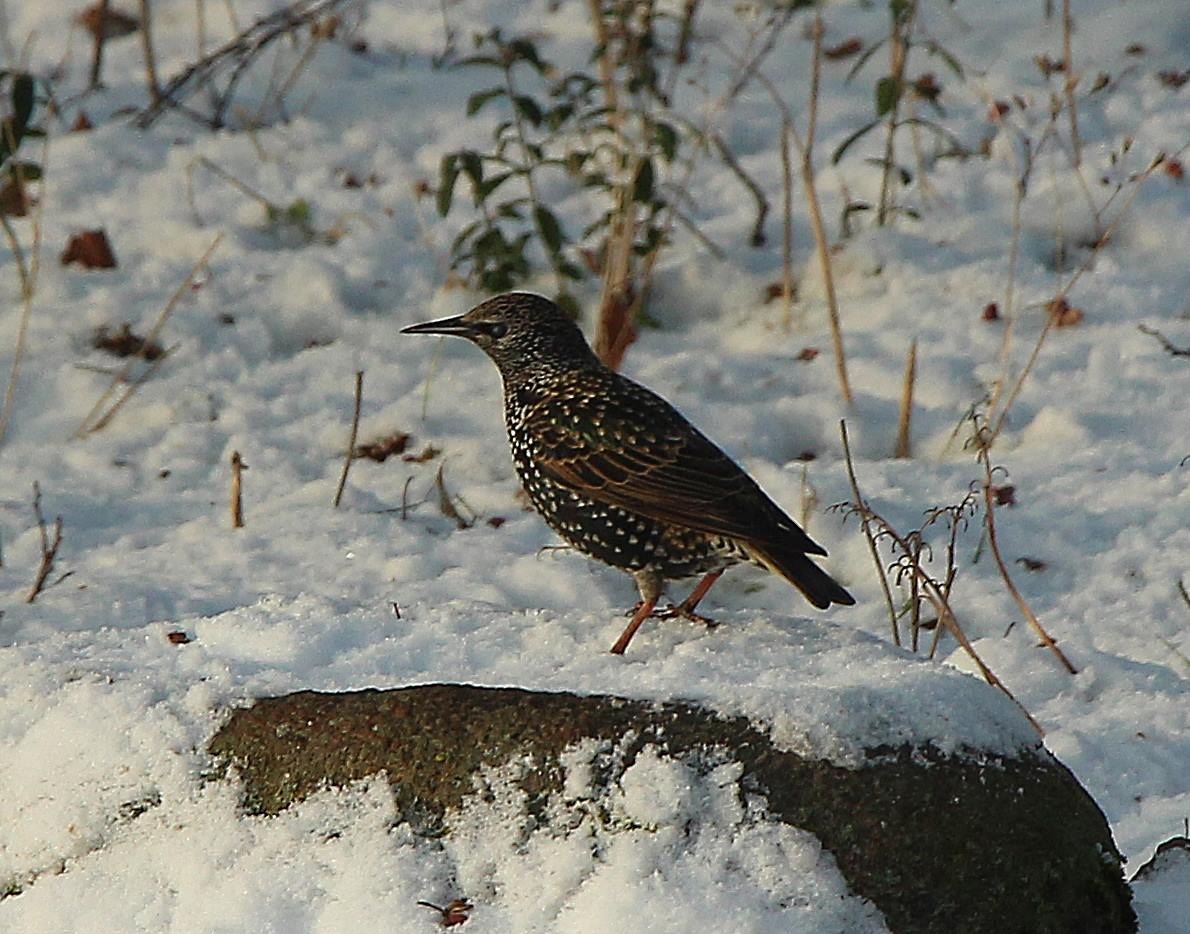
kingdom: Animalia
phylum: Chordata
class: Aves
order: Passeriformes
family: Sturnidae
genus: Sturnus
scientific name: Sturnus vulgaris
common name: Stær
